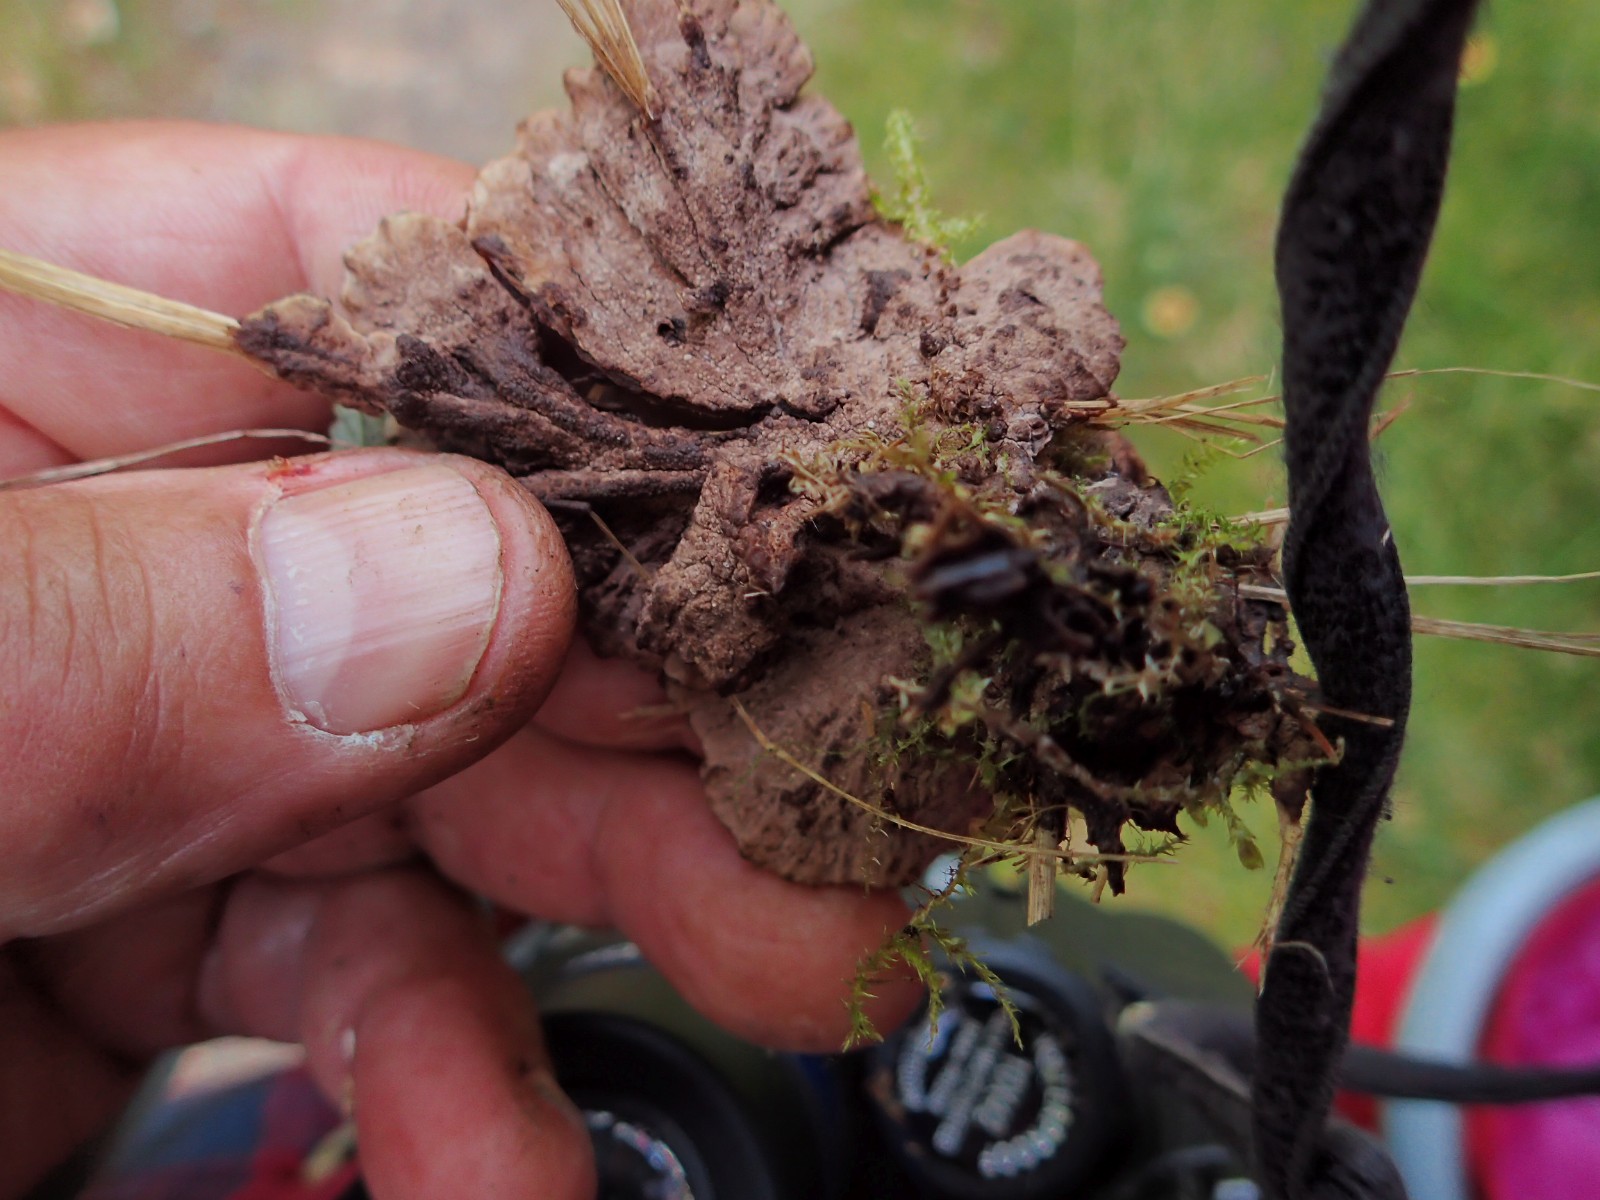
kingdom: Fungi
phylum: Basidiomycota
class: Agaricomycetes
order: Thelephorales
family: Thelephoraceae
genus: Thelephora
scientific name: Thelephora terrestris
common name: fliget frynsesvamp
